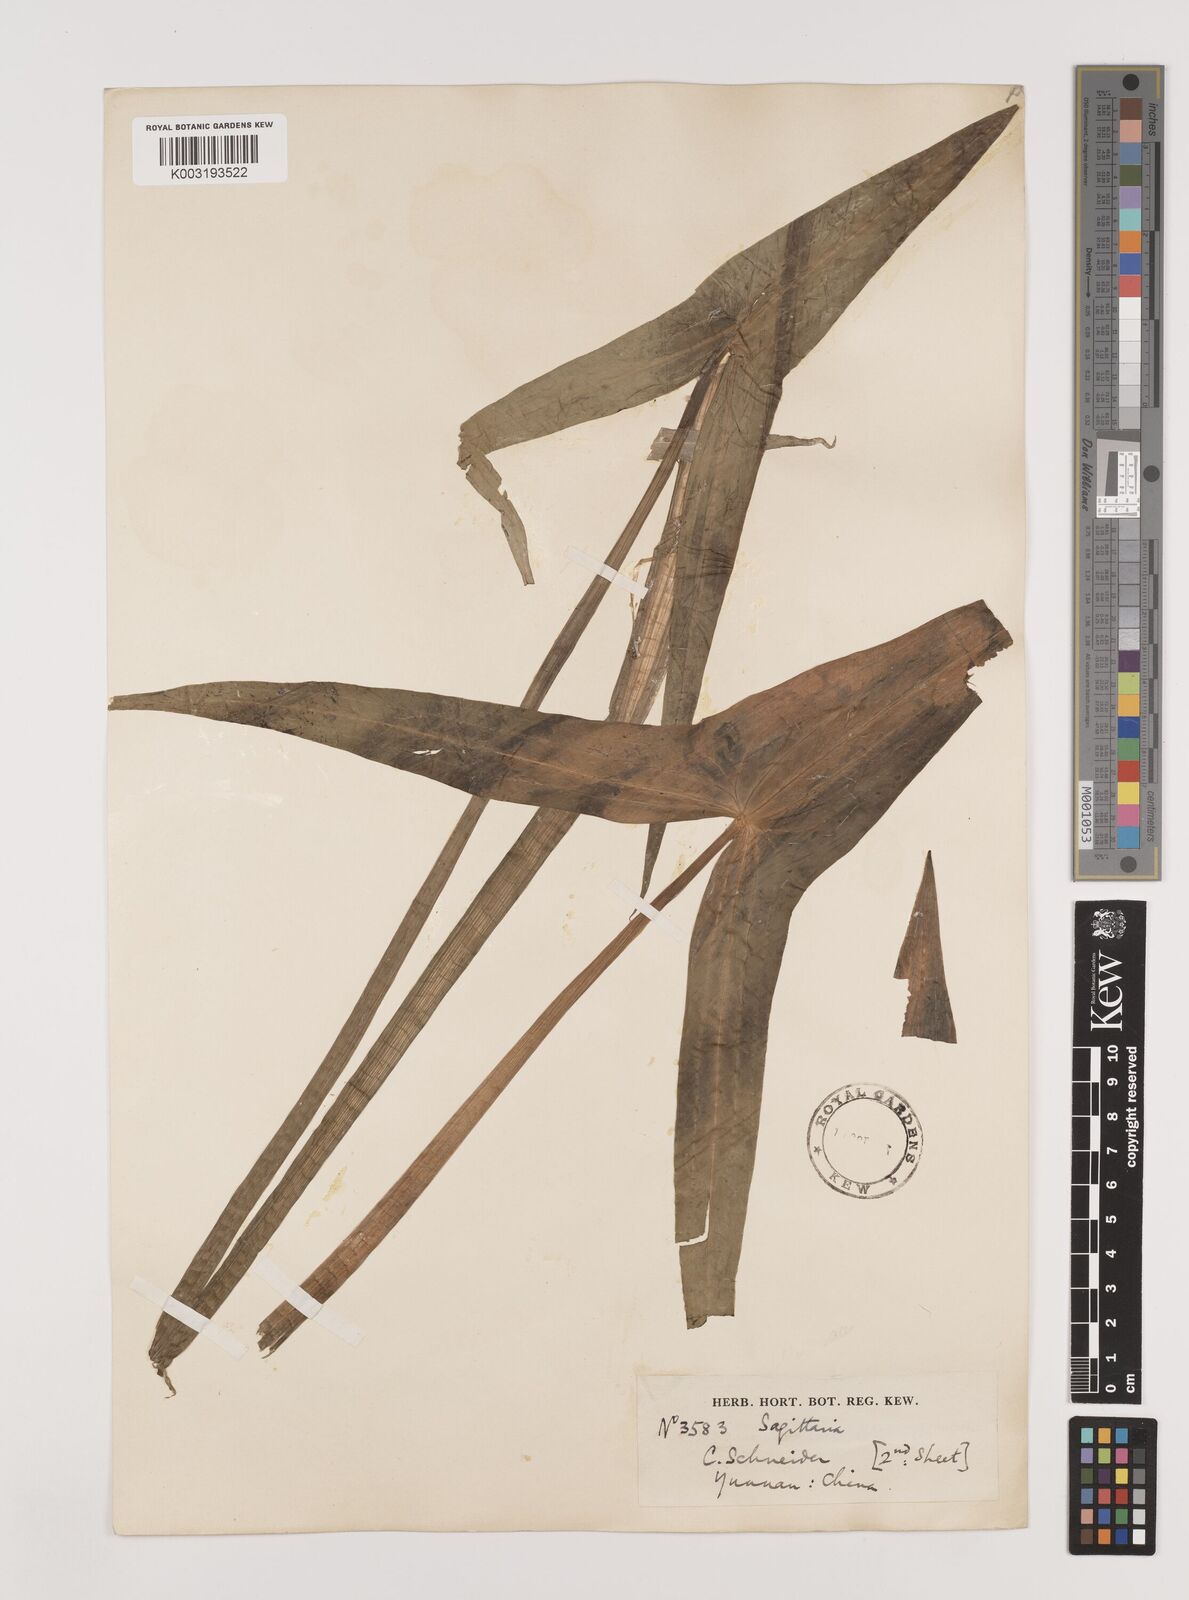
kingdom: Plantae
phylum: Tracheophyta
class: Liliopsida
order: Alismatales
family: Alismataceae
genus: Sagittaria
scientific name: Sagittaria sagittifolia
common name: Arrowhead
